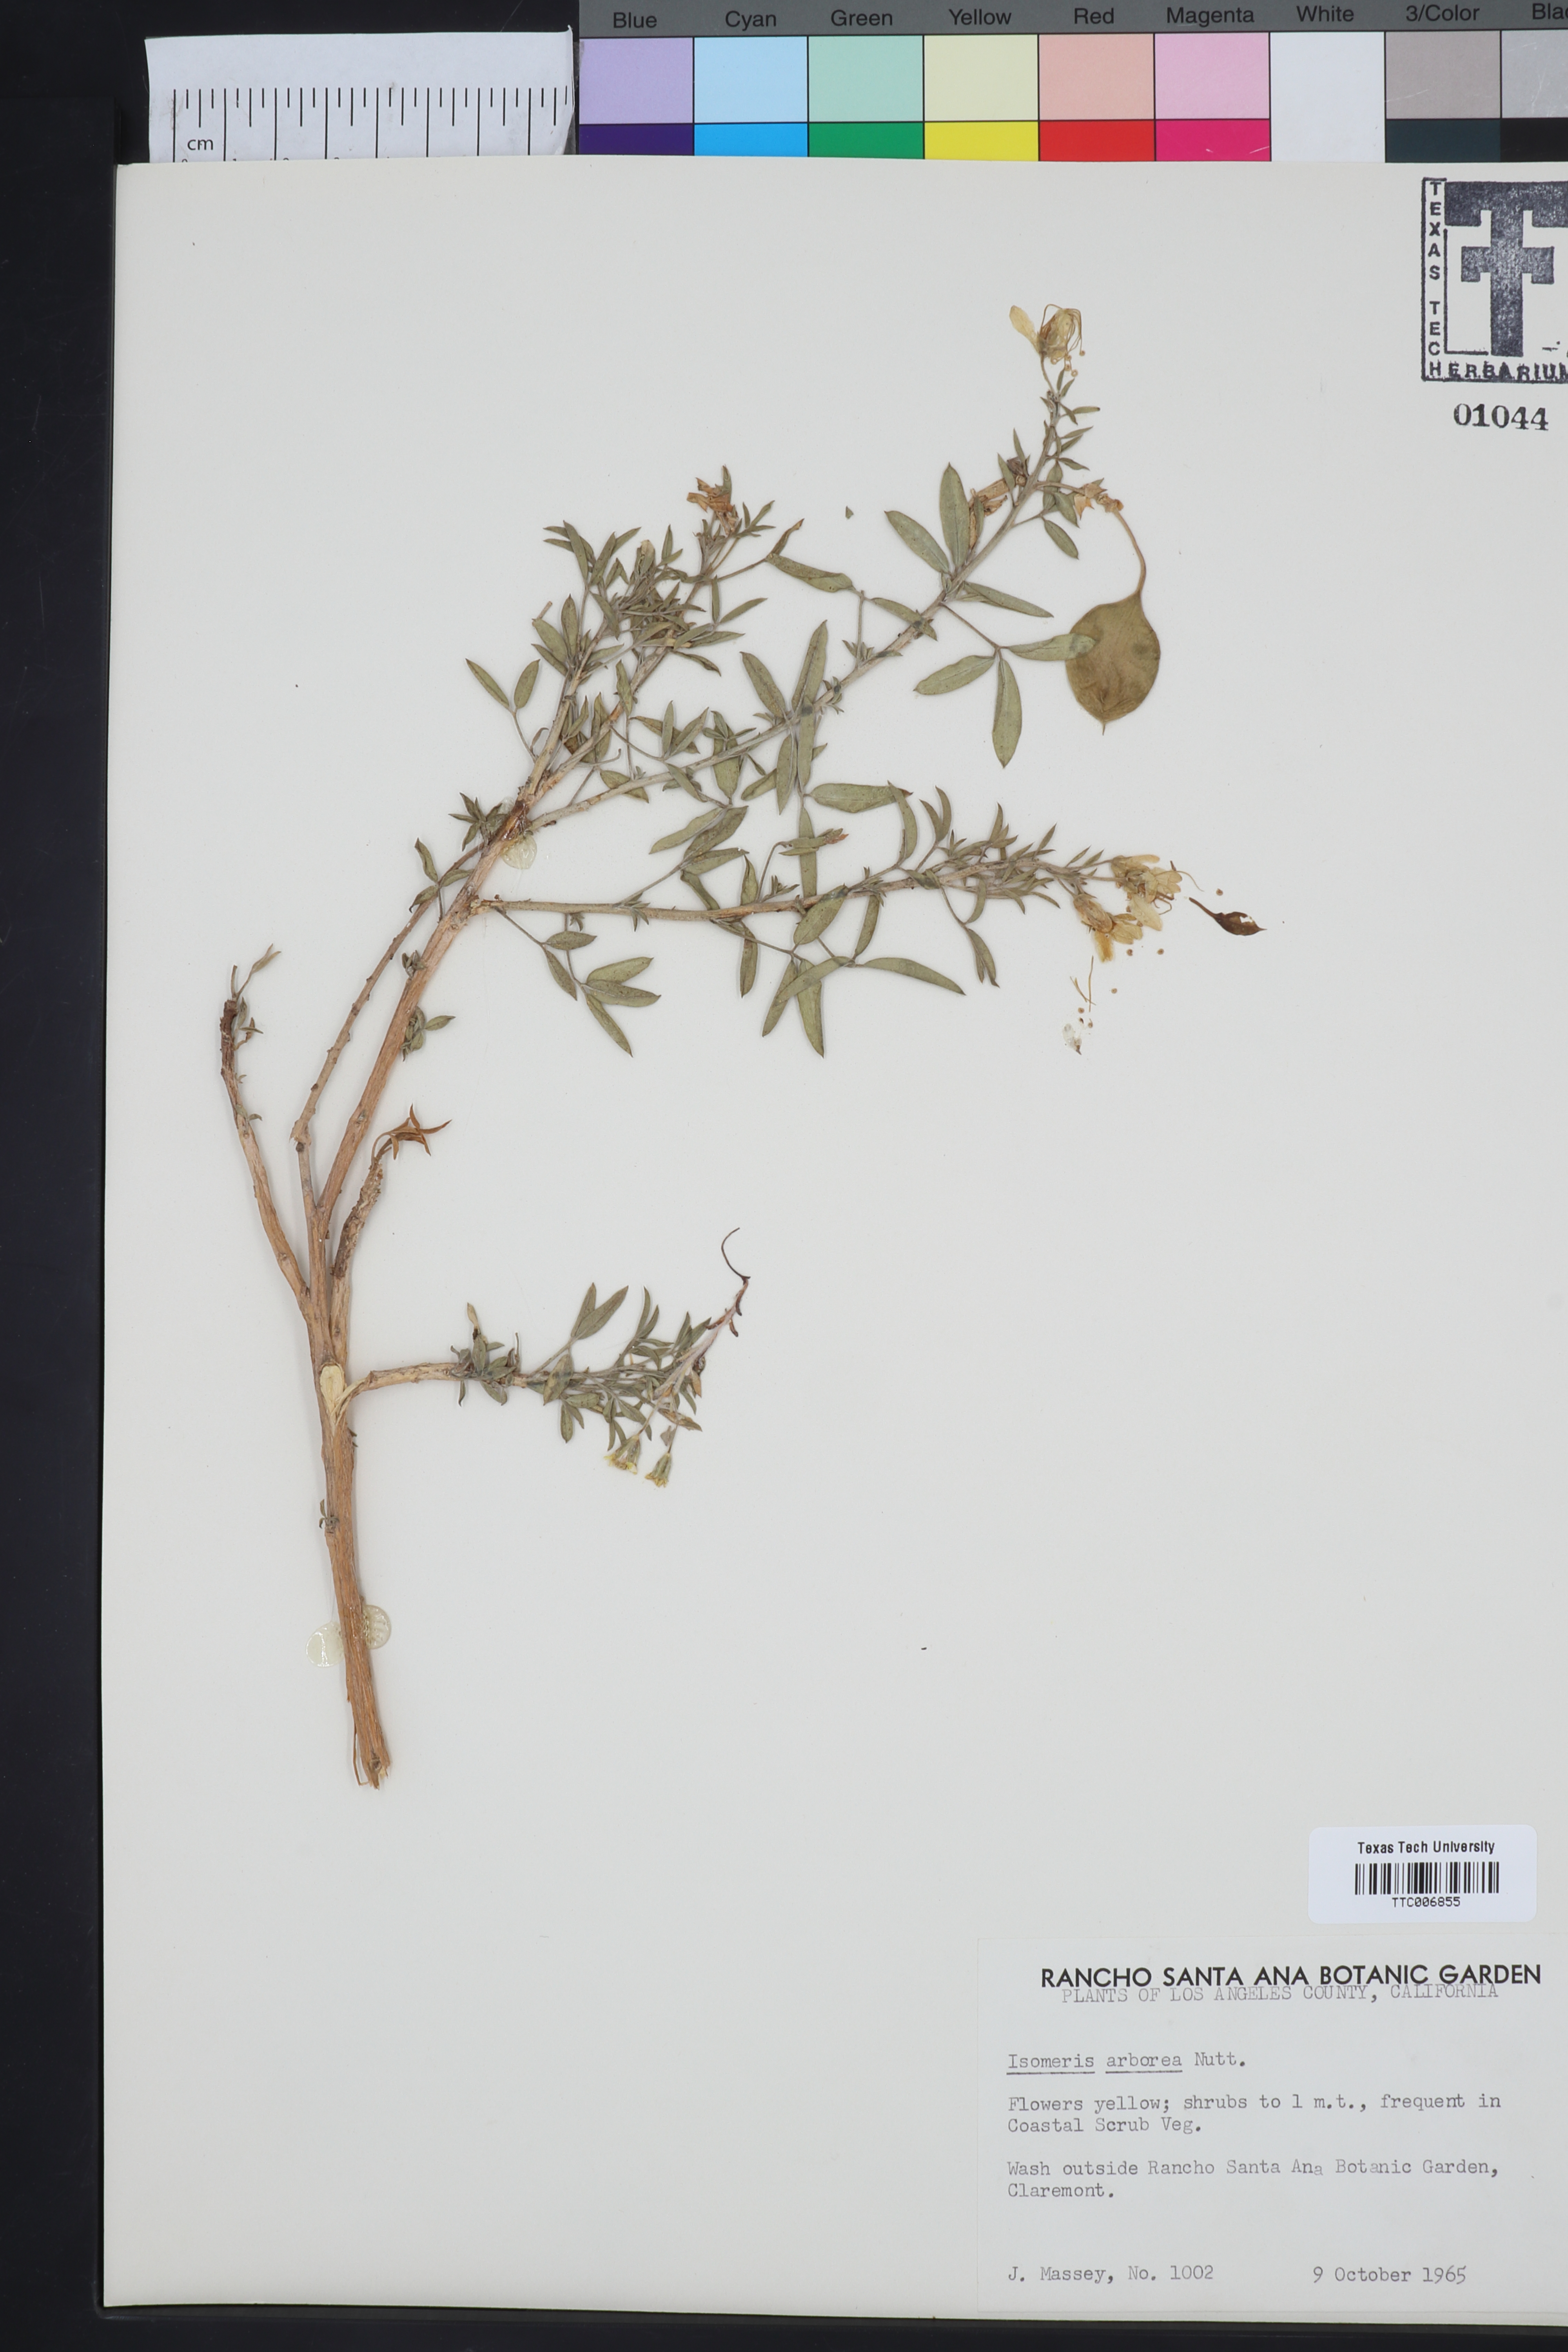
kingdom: Plantae
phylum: Tracheophyta
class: Magnoliopsida
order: Brassicales
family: Cleomaceae
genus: Cleomella
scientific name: Cleomella arborea
